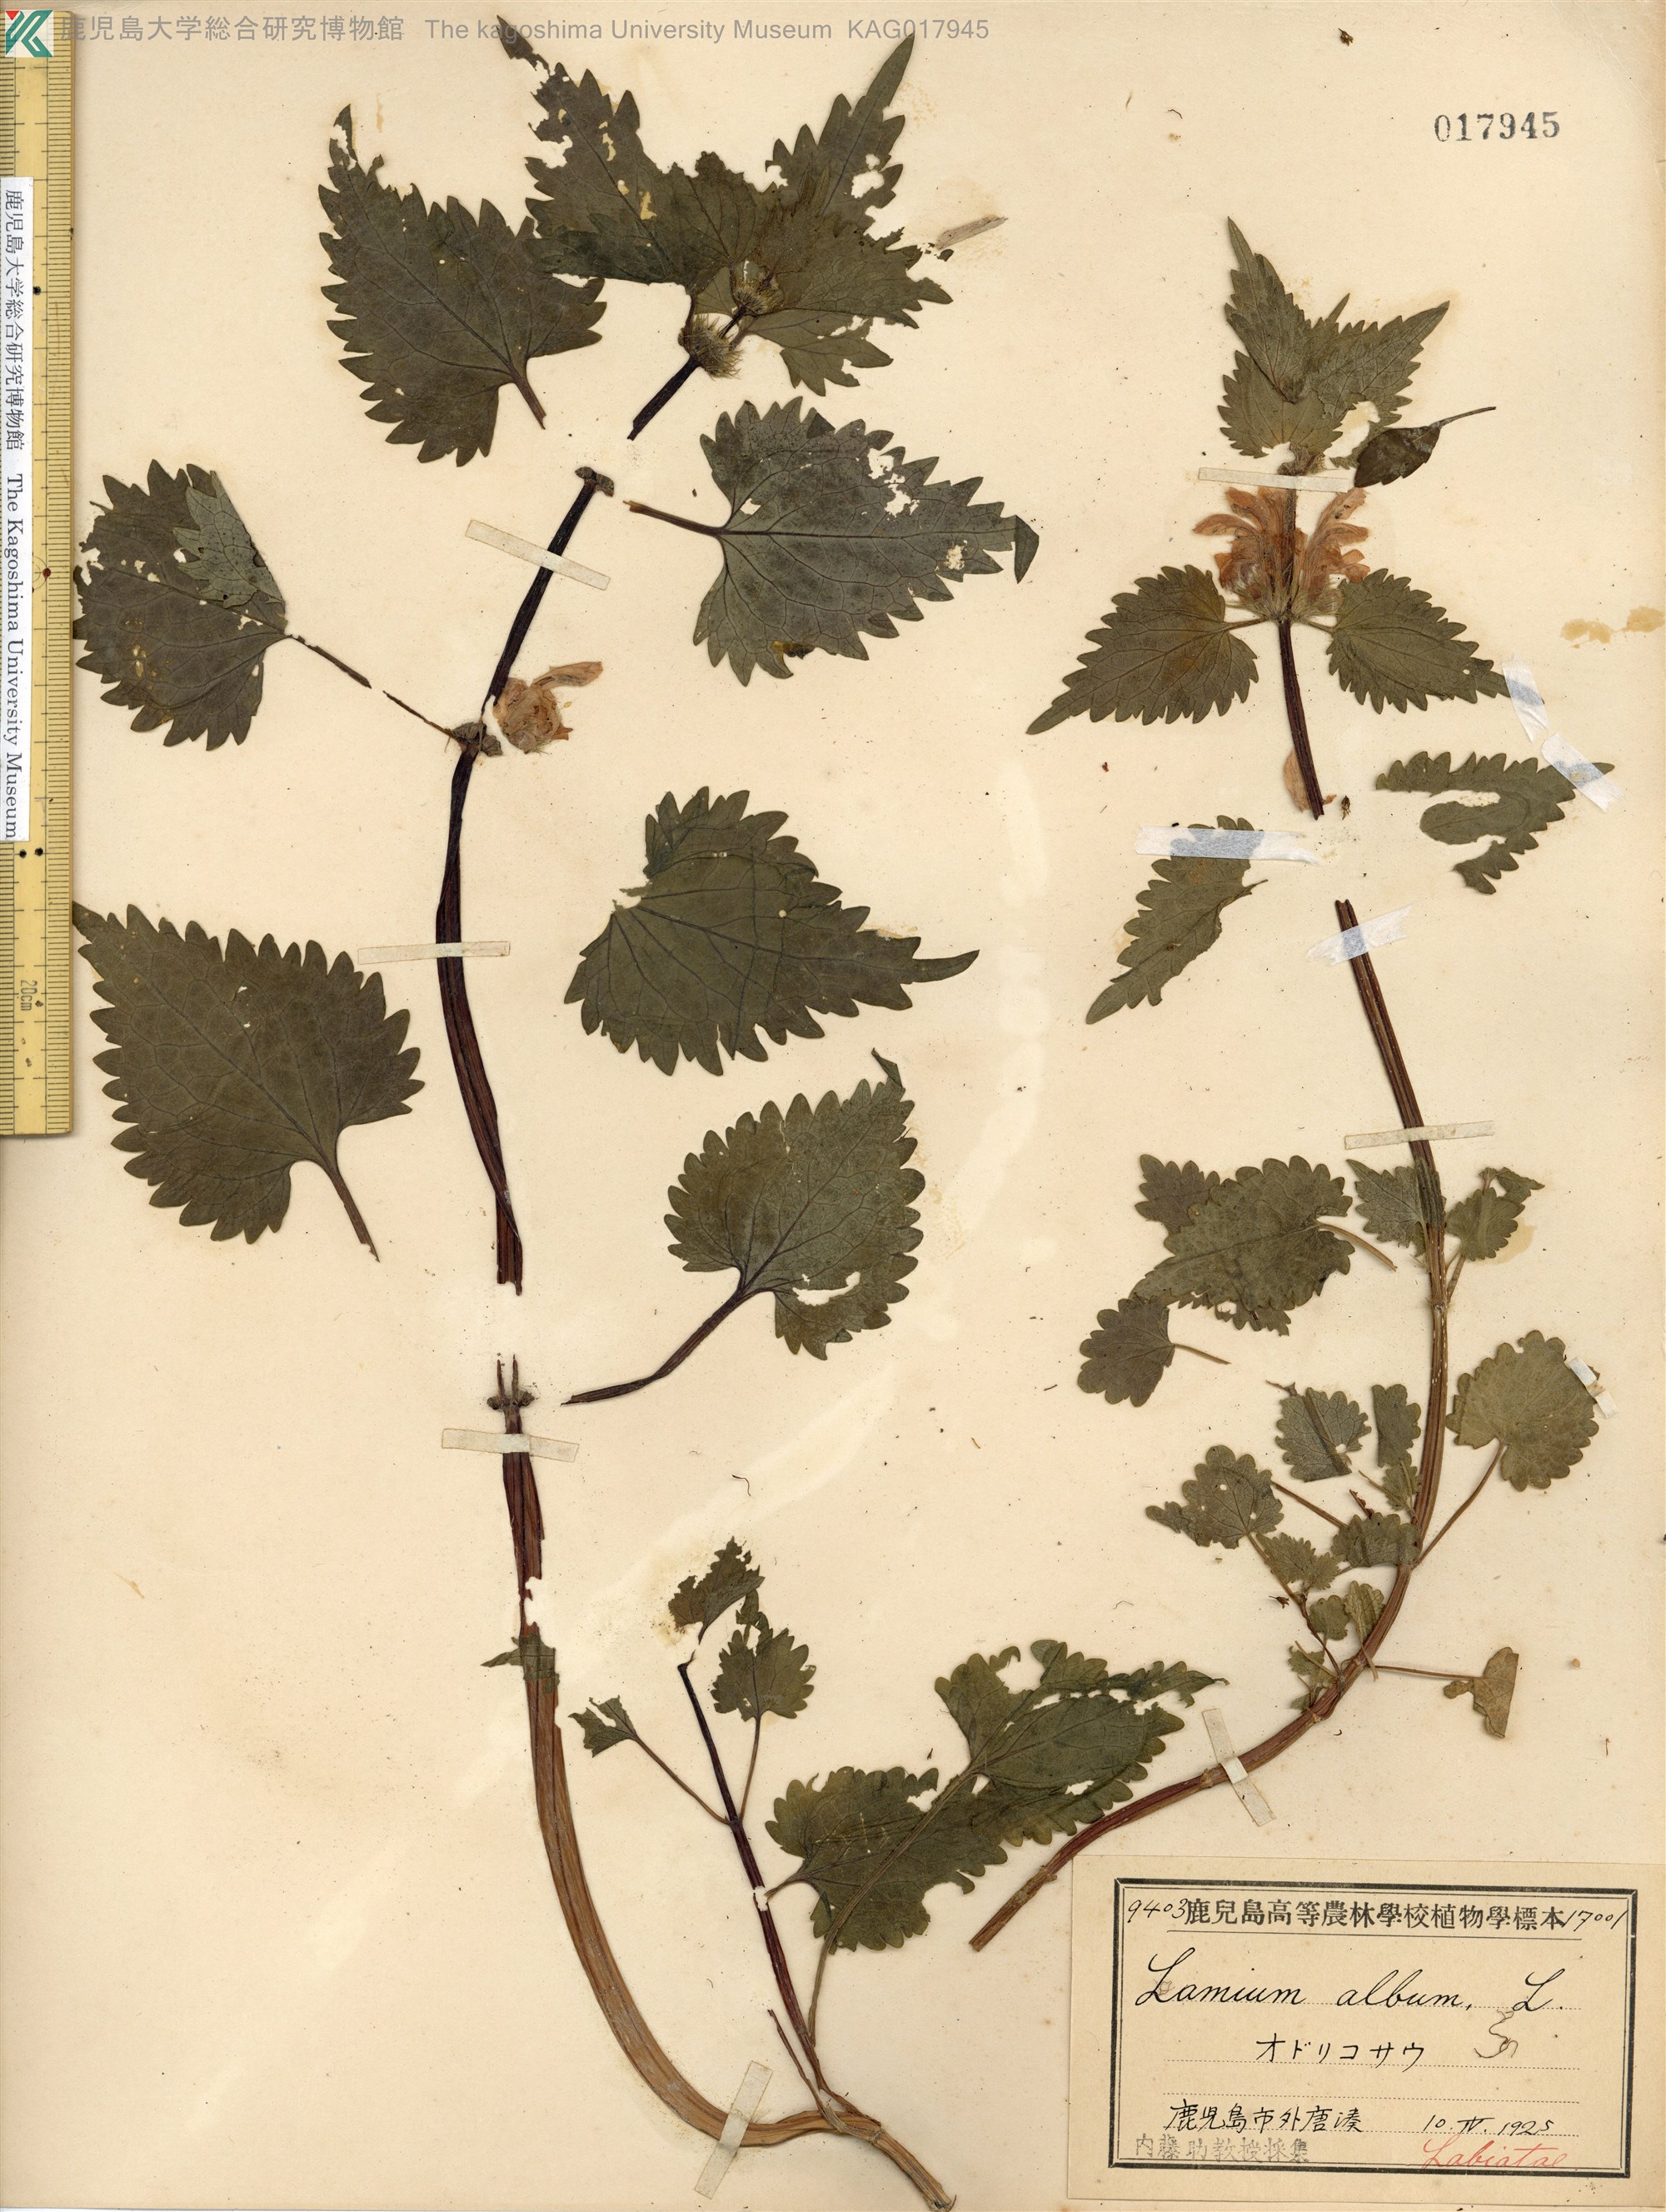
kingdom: Plantae
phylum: Tracheophyta
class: Magnoliopsida
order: Lamiales
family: Lamiaceae
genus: Lamium
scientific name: Lamium album
